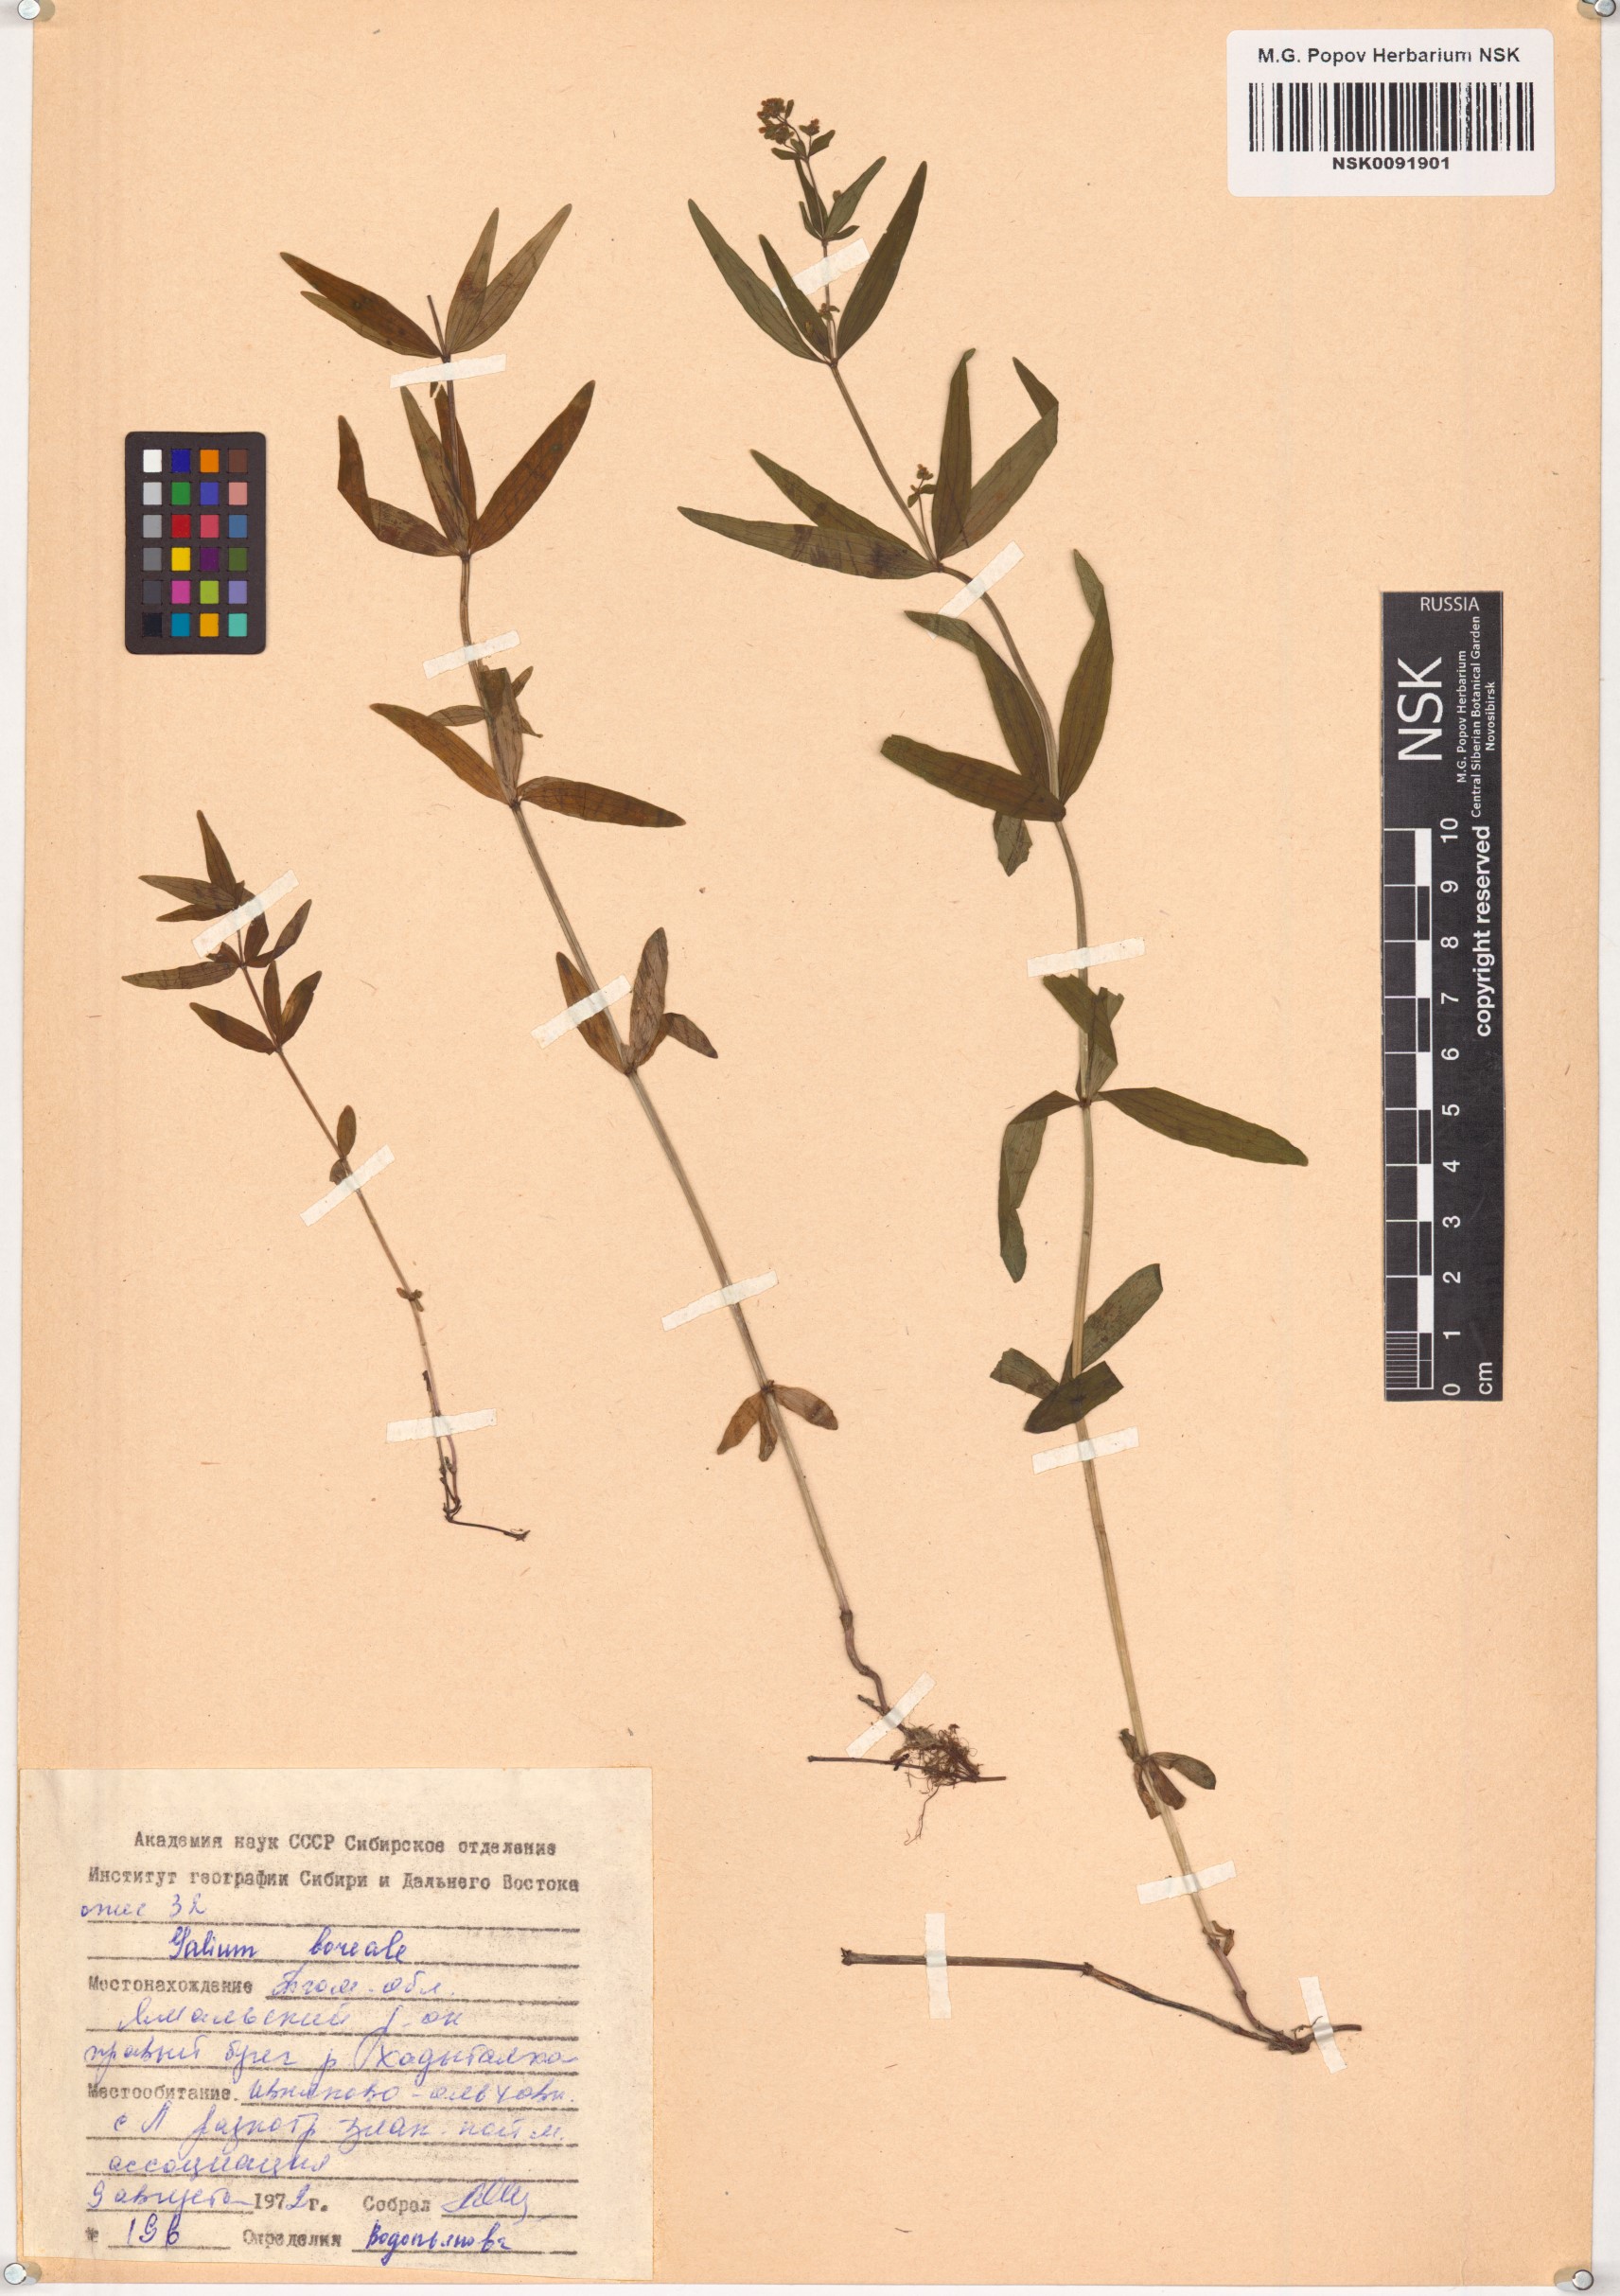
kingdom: Plantae
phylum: Tracheophyta
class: Magnoliopsida
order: Gentianales
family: Rubiaceae
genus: Galium
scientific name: Galium boreale
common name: Northern bedstraw
